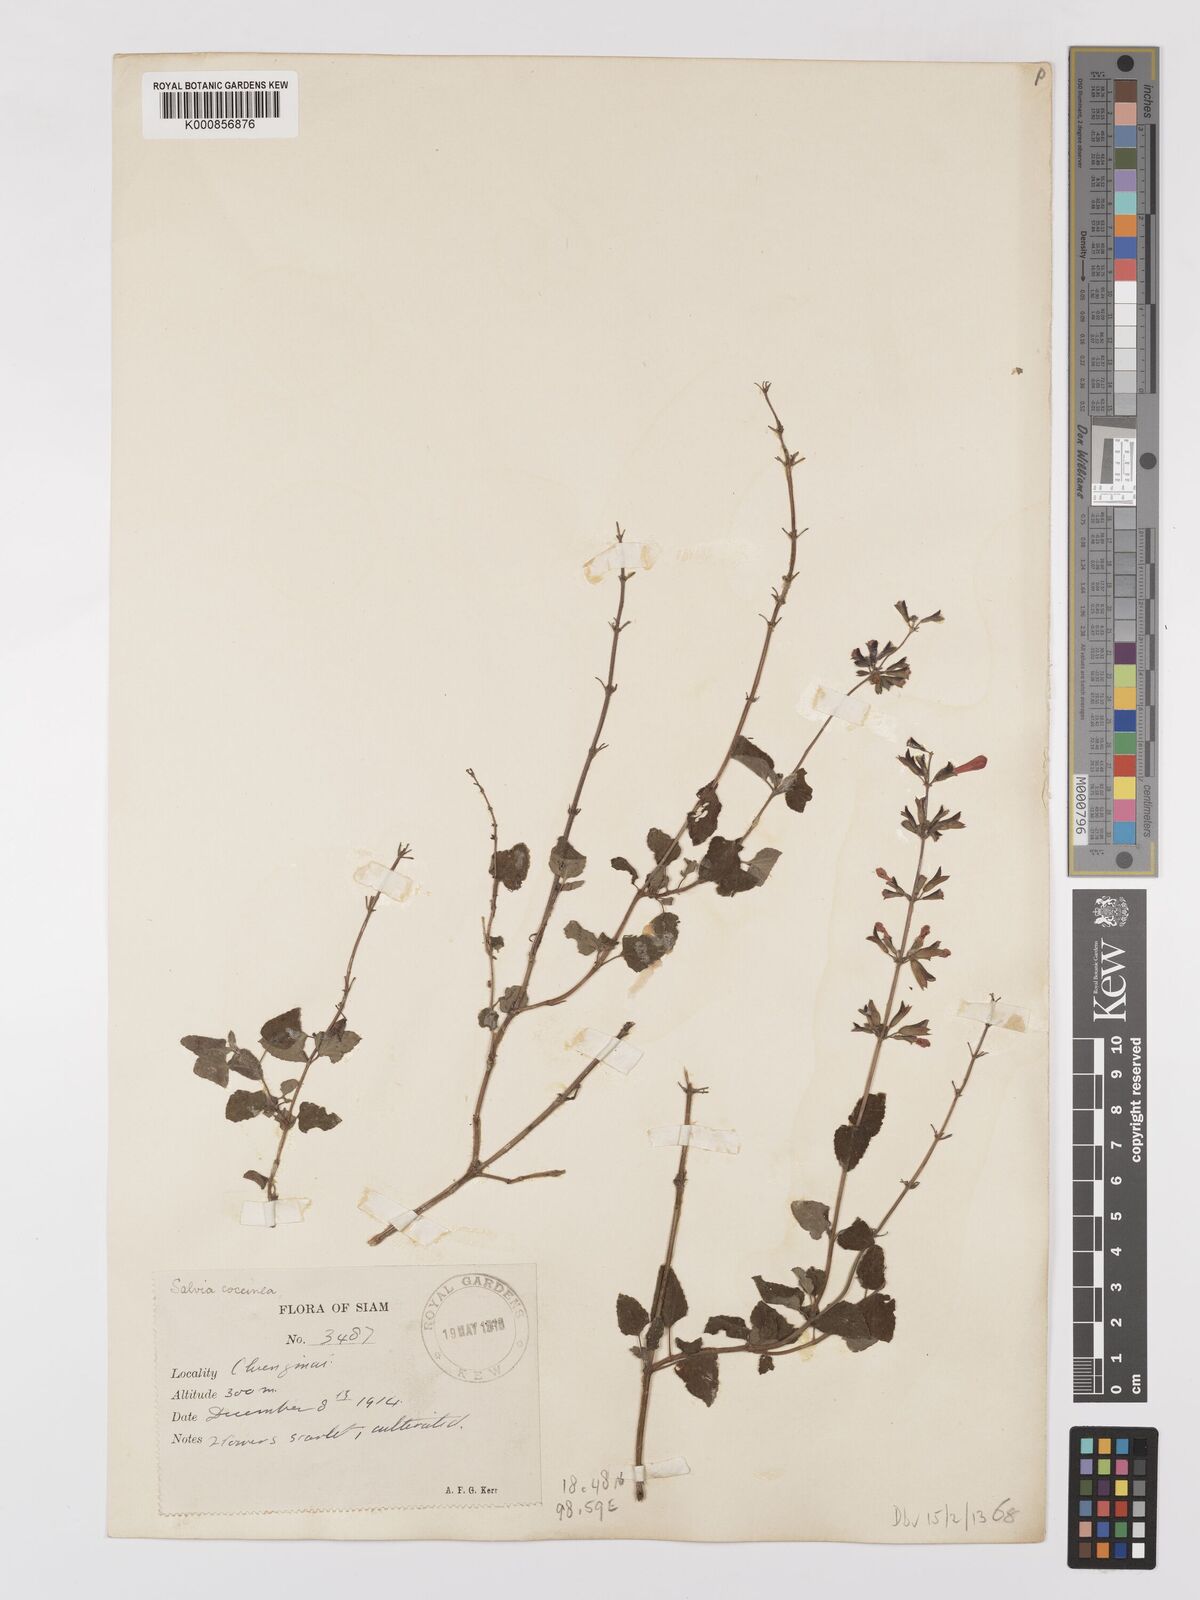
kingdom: Plantae
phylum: Tracheophyta
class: Magnoliopsida
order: Lamiales
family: Lamiaceae
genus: Salvia
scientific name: Salvia coccinea
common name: Blood sage
